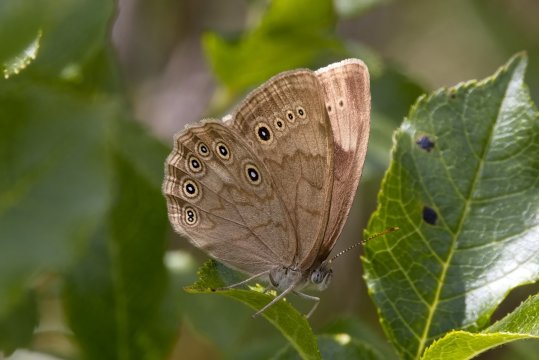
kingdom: Animalia
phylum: Arthropoda
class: Insecta
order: Lepidoptera
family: Nymphalidae
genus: Lethe
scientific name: Lethe eurydice
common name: Eyed Brown
